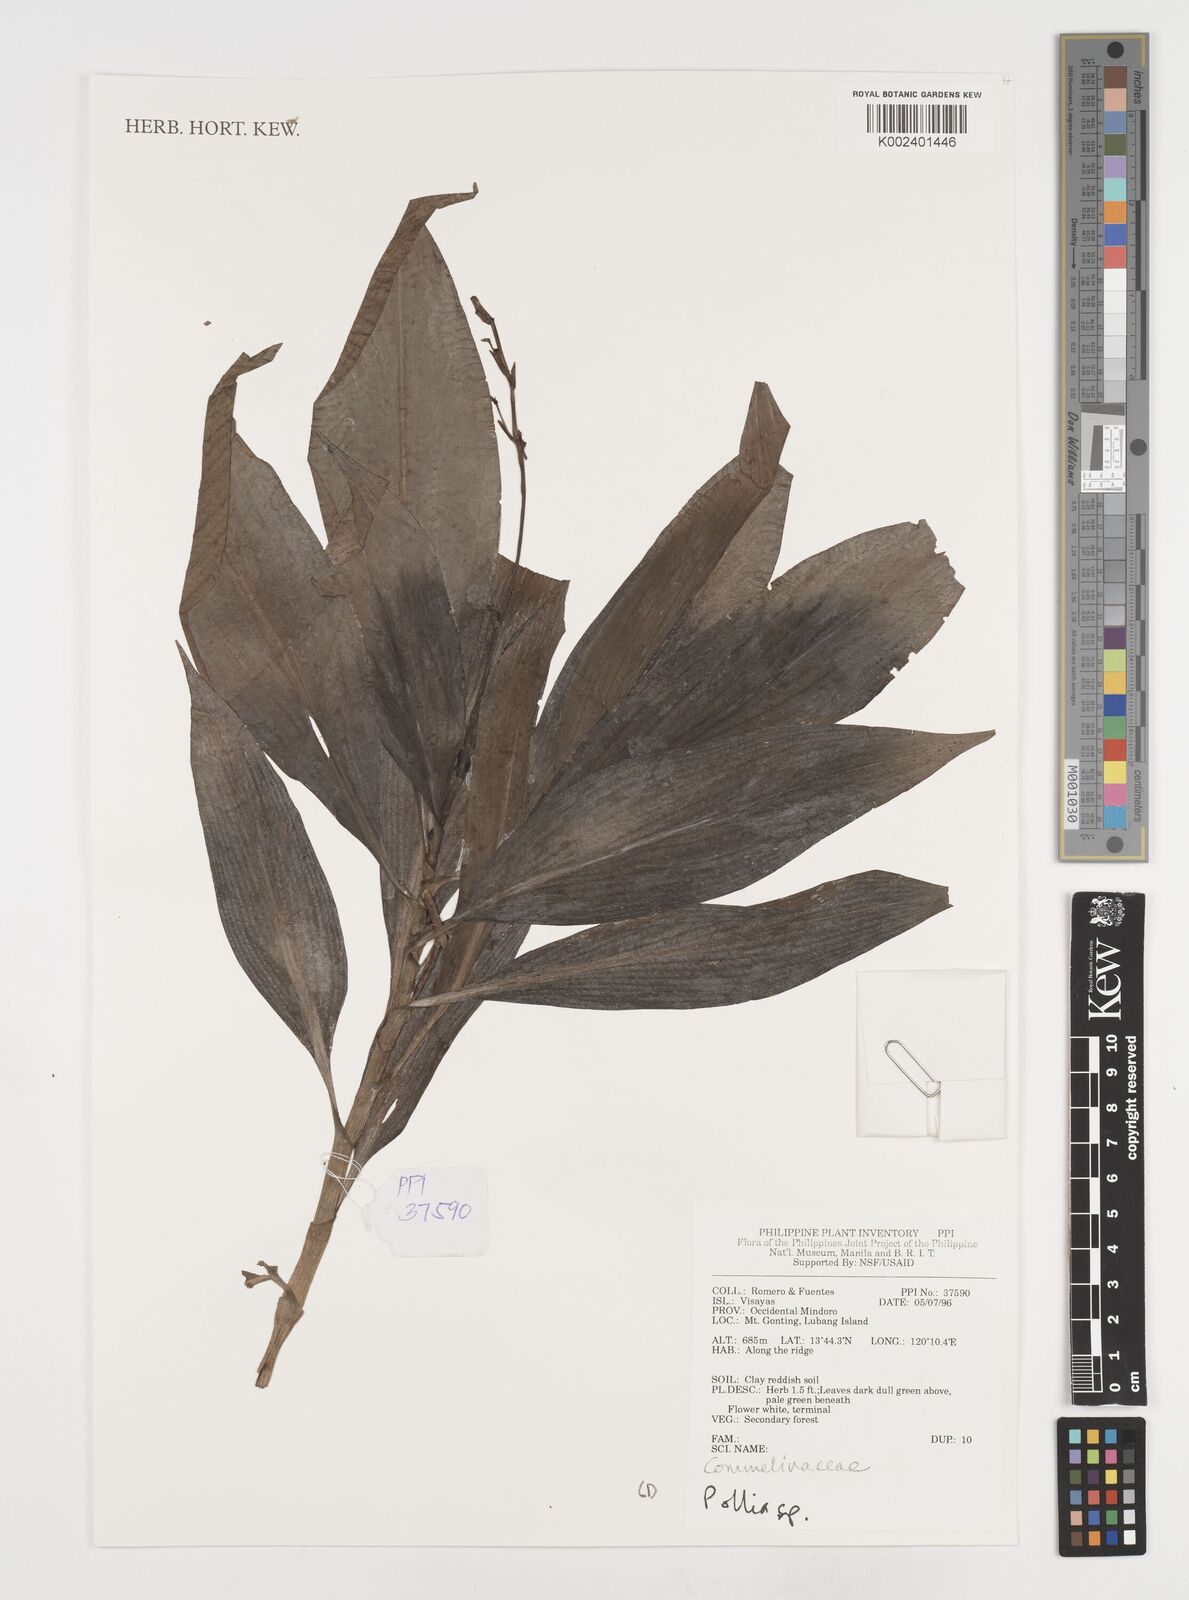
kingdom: Plantae
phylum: Tracheophyta
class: Liliopsida
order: Commelinales
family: Commelinaceae
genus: Pollia
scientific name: Pollia
